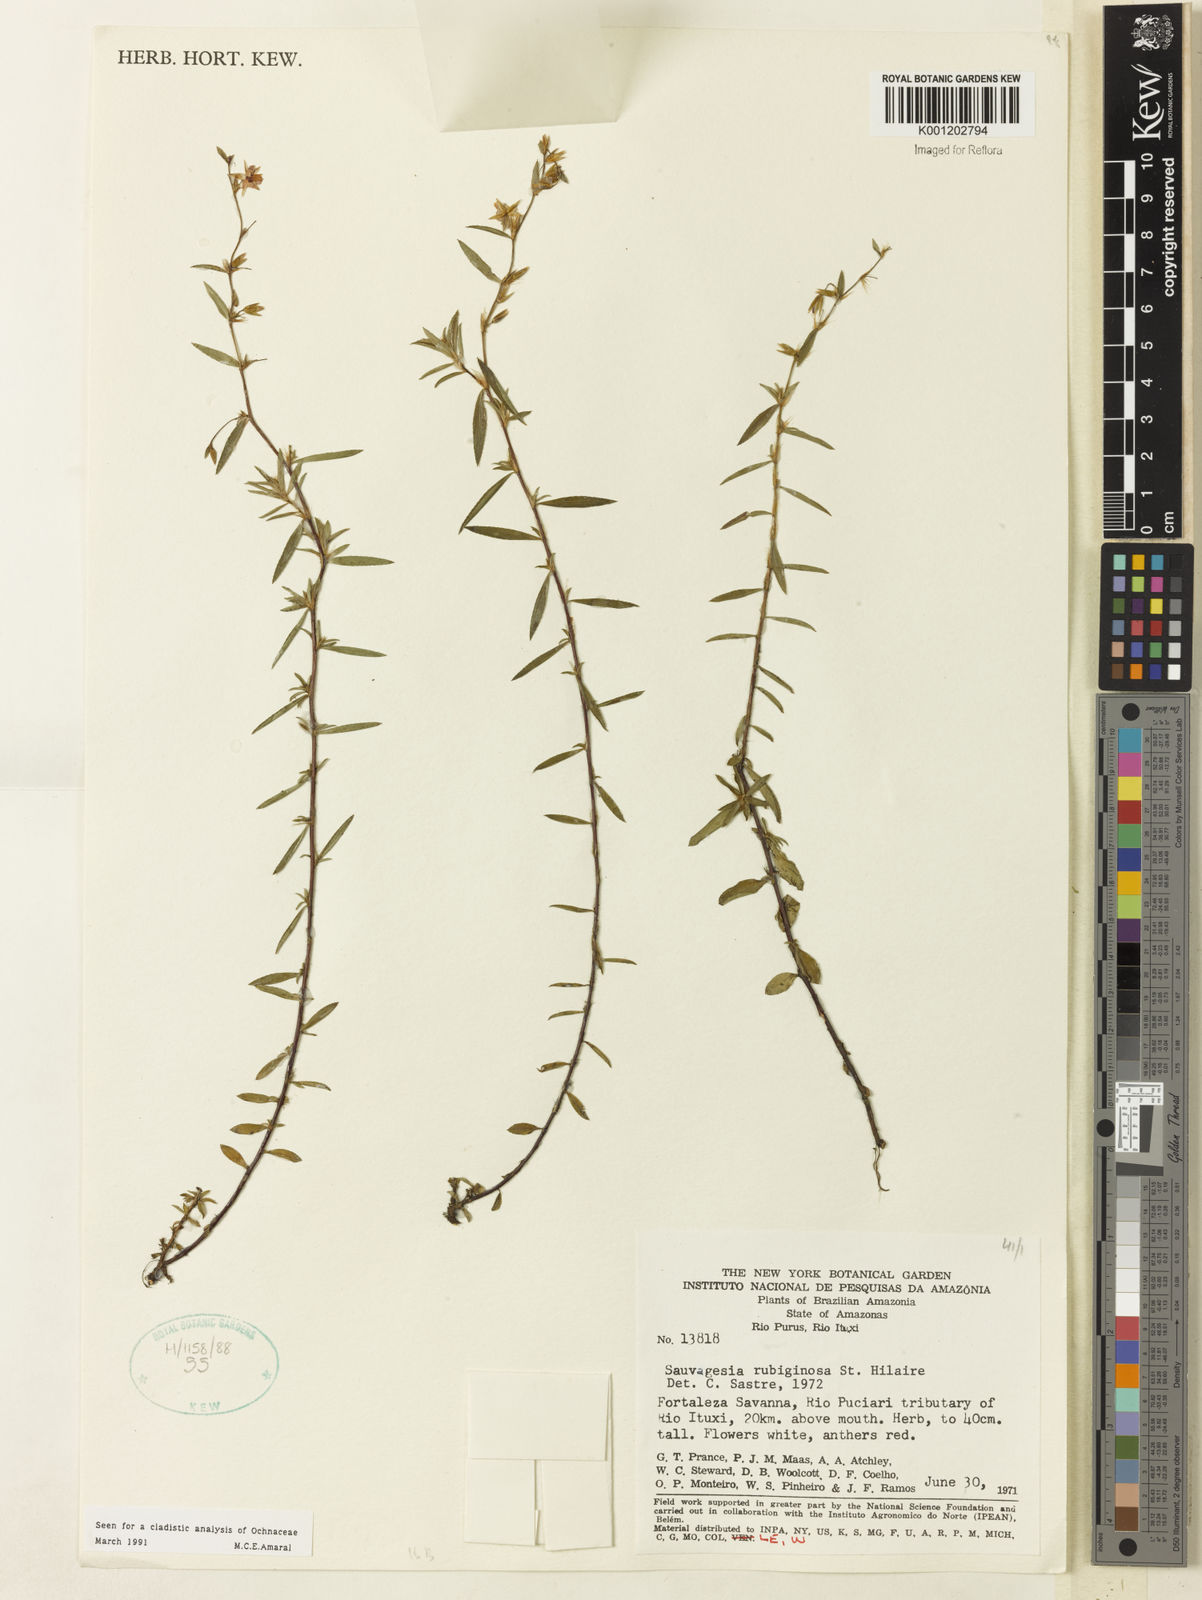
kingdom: Plantae
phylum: Tracheophyta
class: Magnoliopsida
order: Malpighiales
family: Ochnaceae
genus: Sauvagesia
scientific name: Sauvagesia rubiginosa
